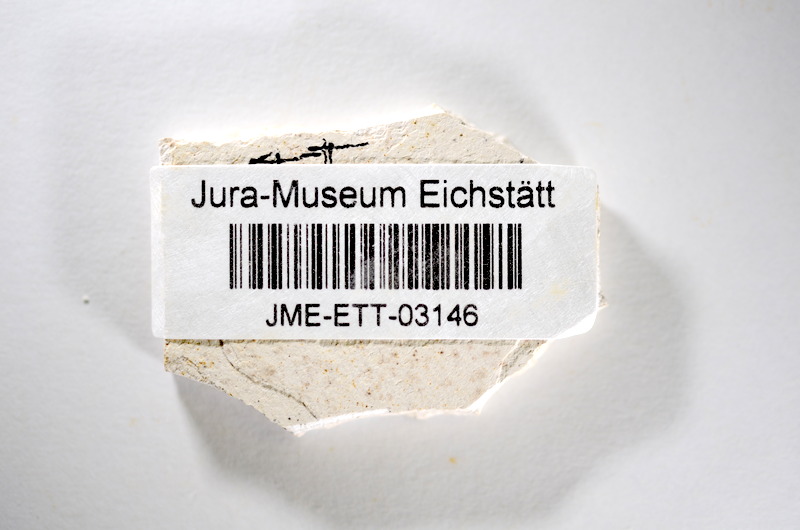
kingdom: Animalia
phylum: Chordata
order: Salmoniformes
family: Orthogonikleithridae
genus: Orthogonikleithrus
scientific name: Orthogonikleithrus hoelli
